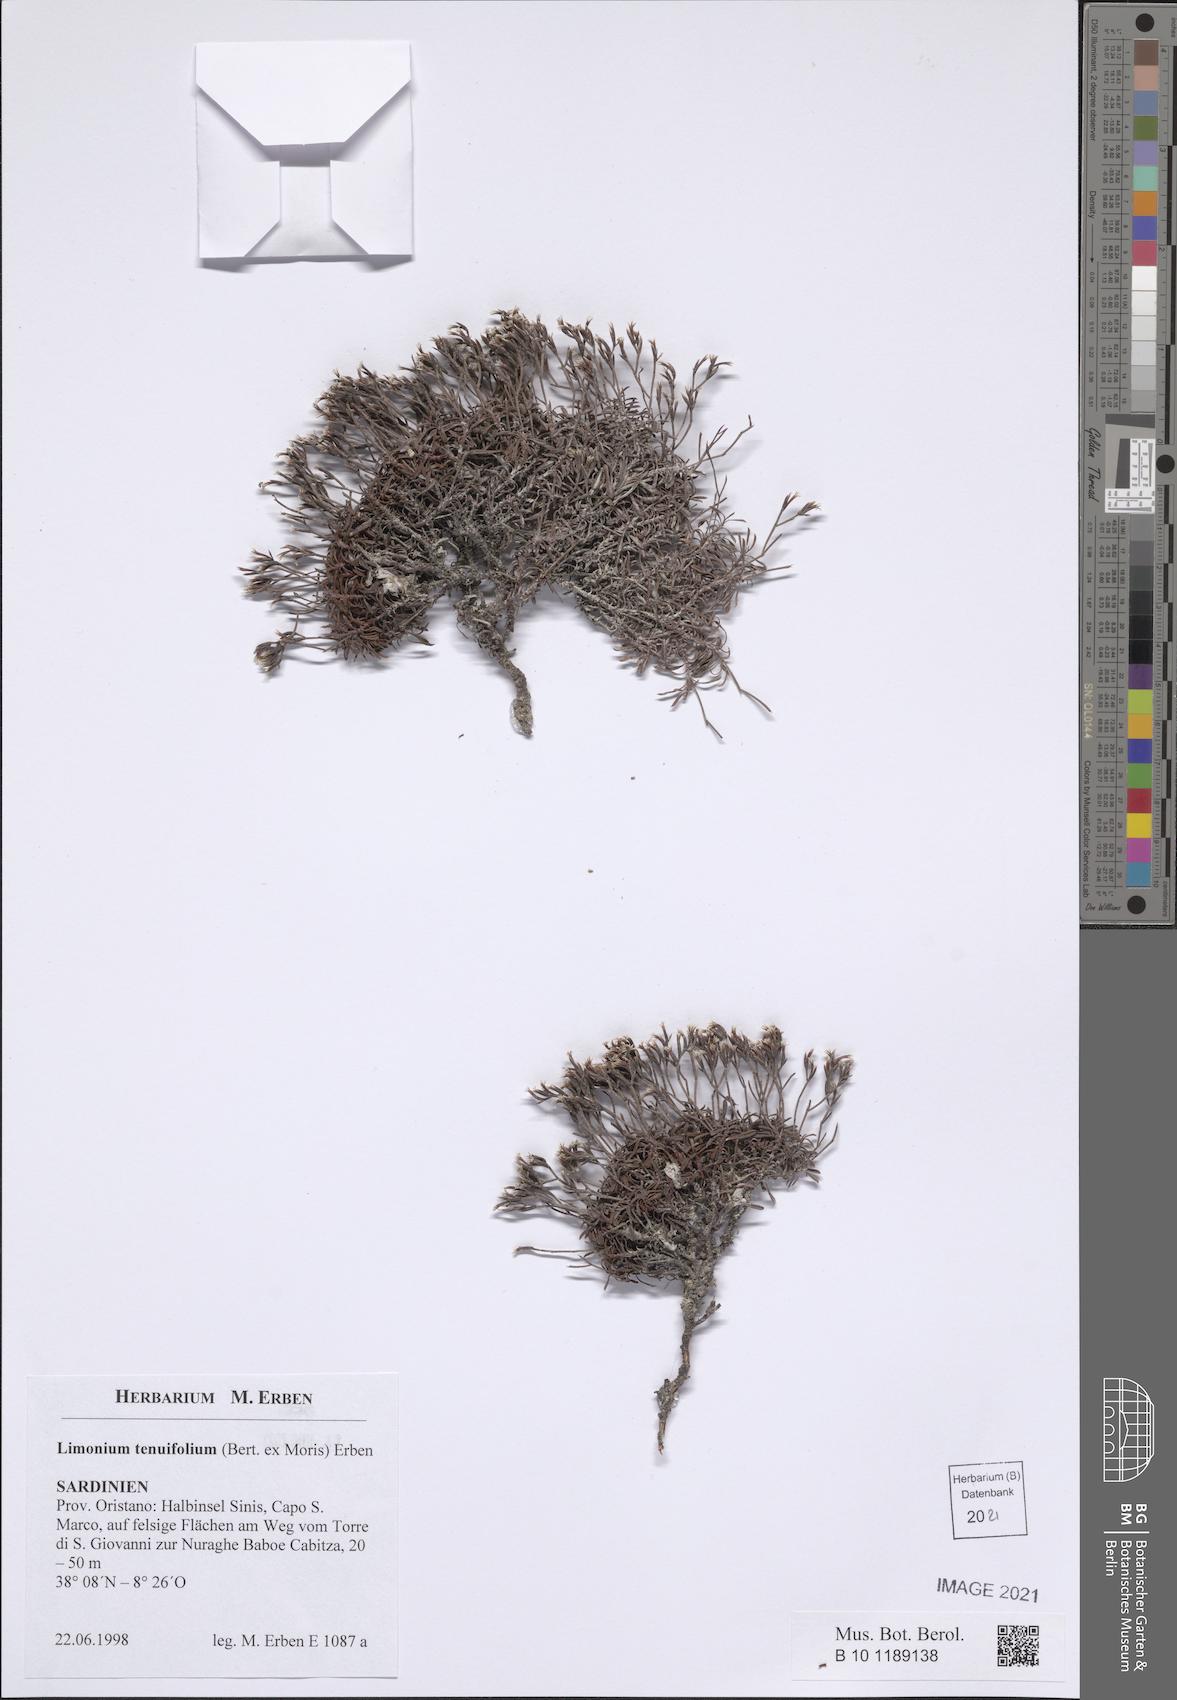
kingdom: Plantae
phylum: Tracheophyta
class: Magnoliopsida
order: Caryophyllales
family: Plumbaginaceae
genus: Limonium
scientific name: Limonium glomeratum
